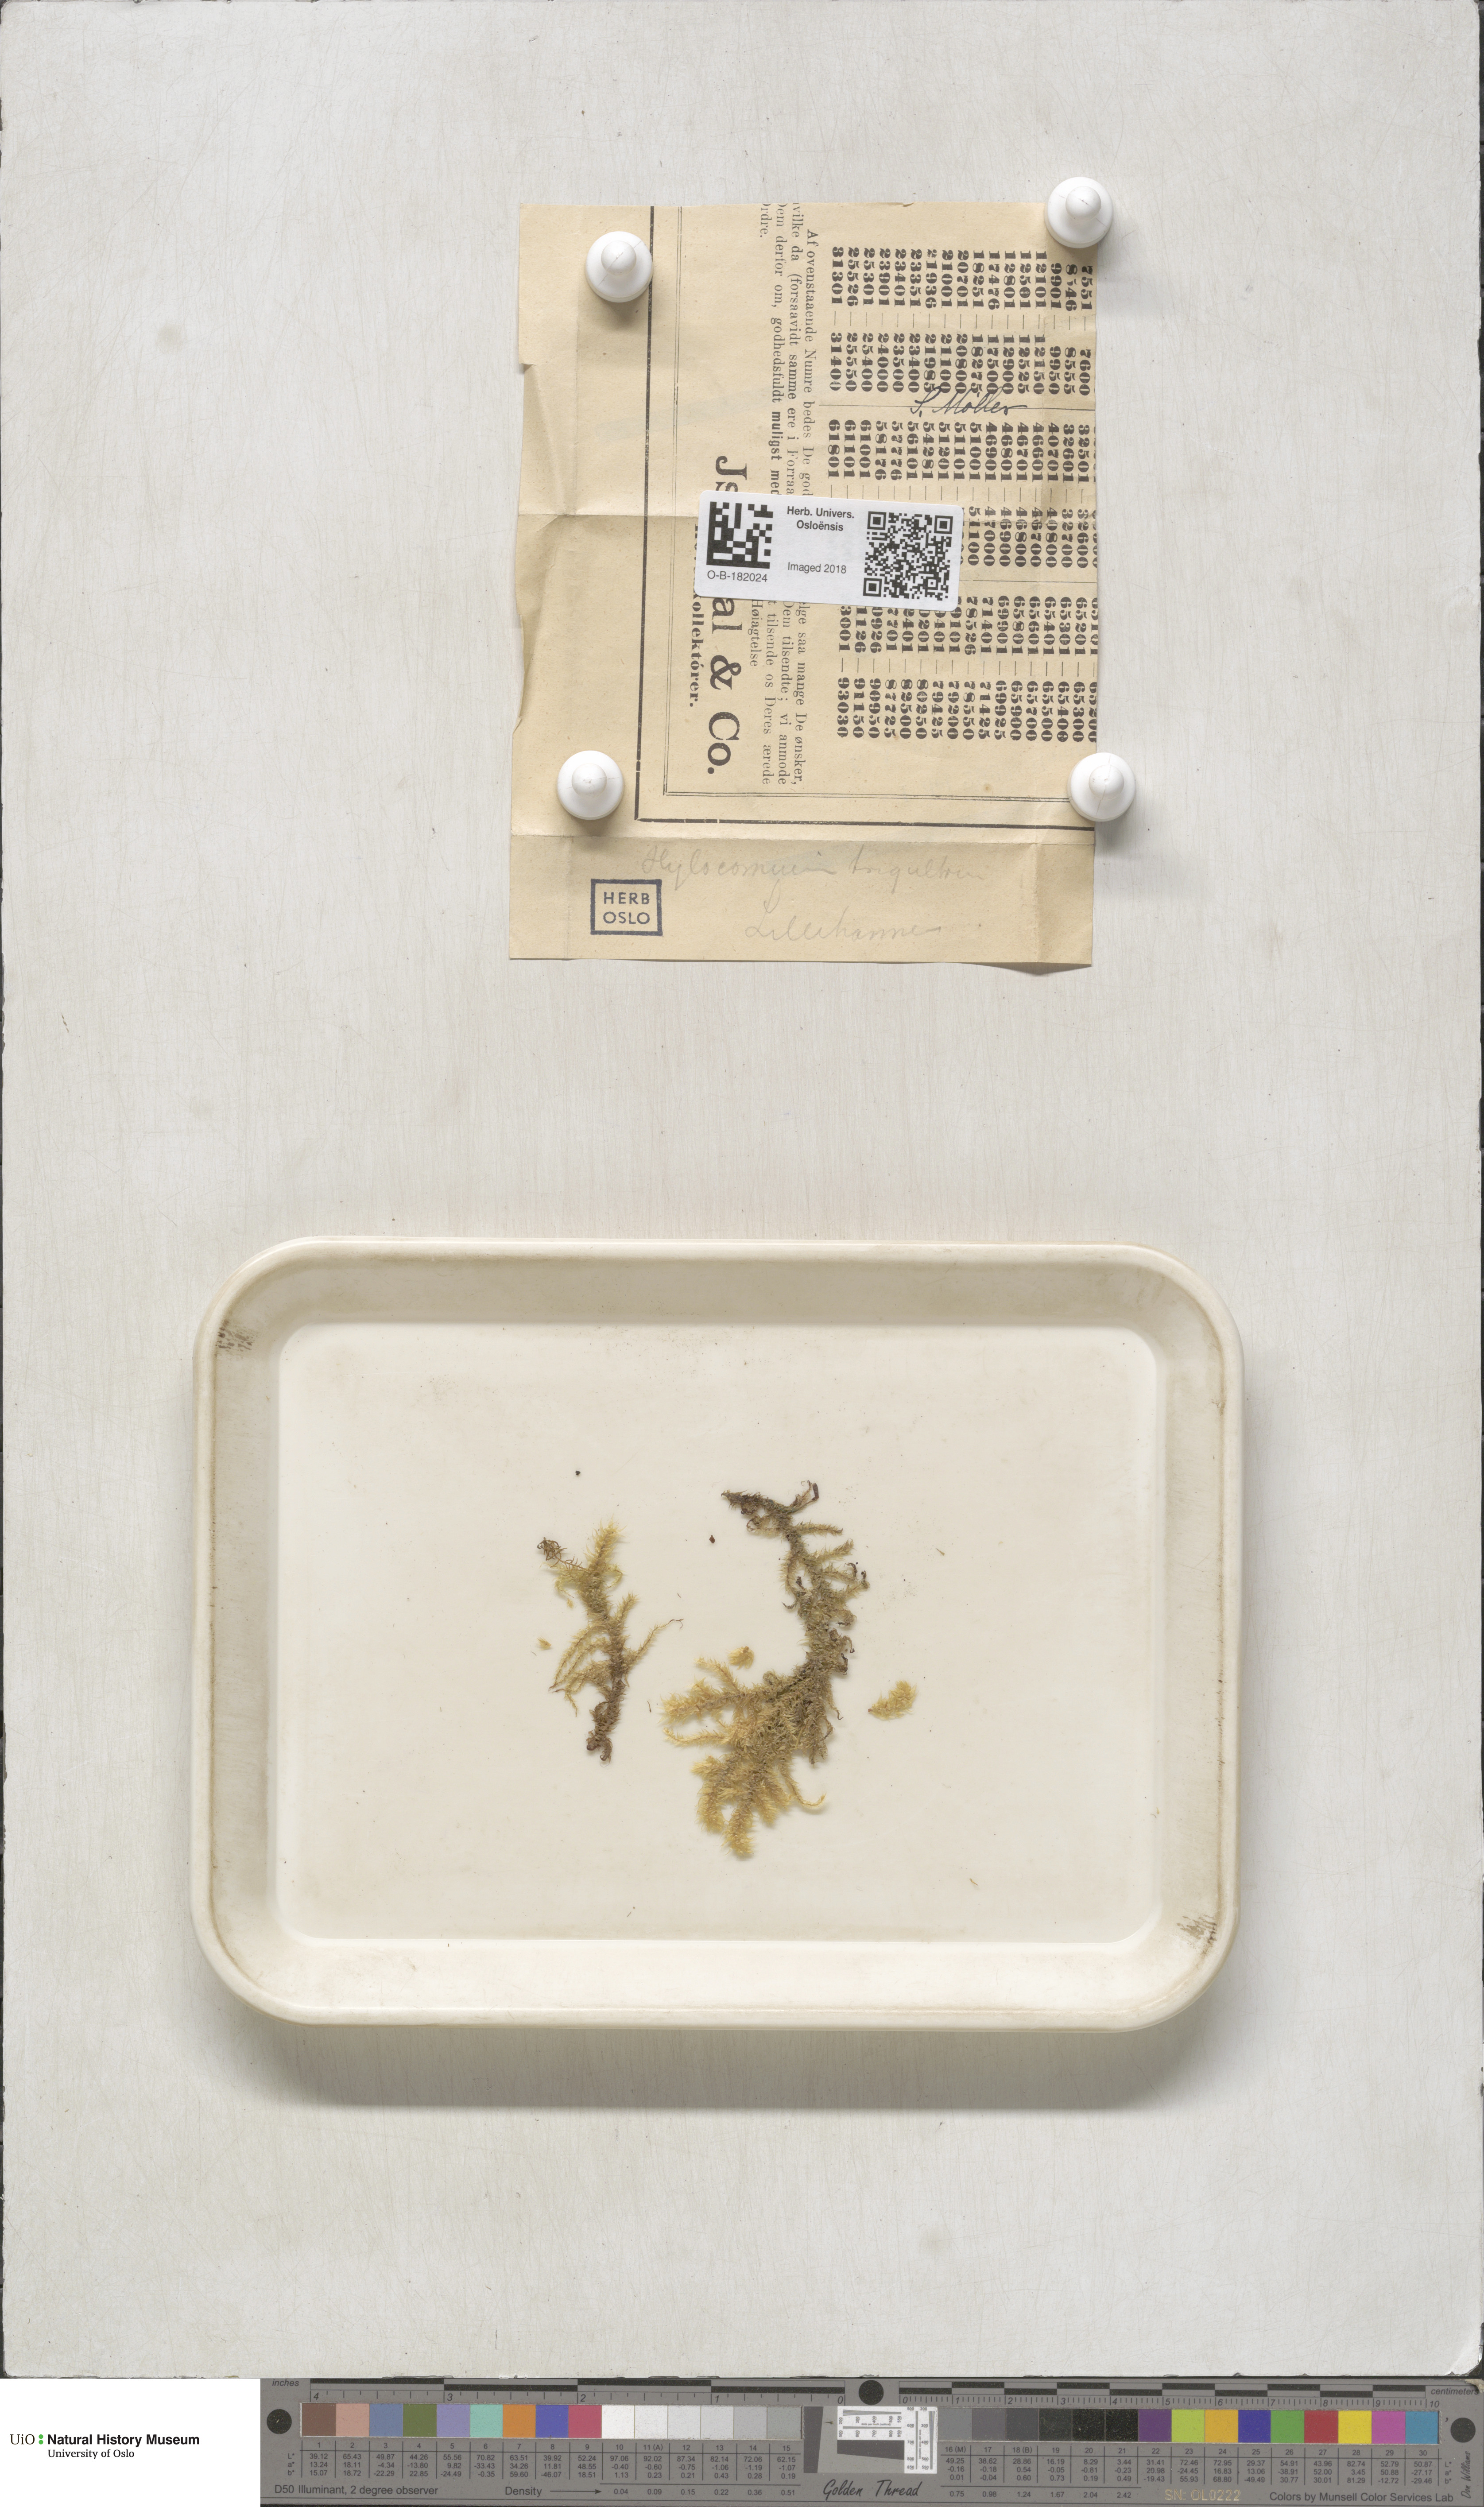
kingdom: Plantae
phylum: Bryophyta
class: Bryopsida
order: Hypnales
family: Hylocomiaceae
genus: Hylocomiadelphus
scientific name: Hylocomiadelphus triquetrus
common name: Rough goose neck moss
